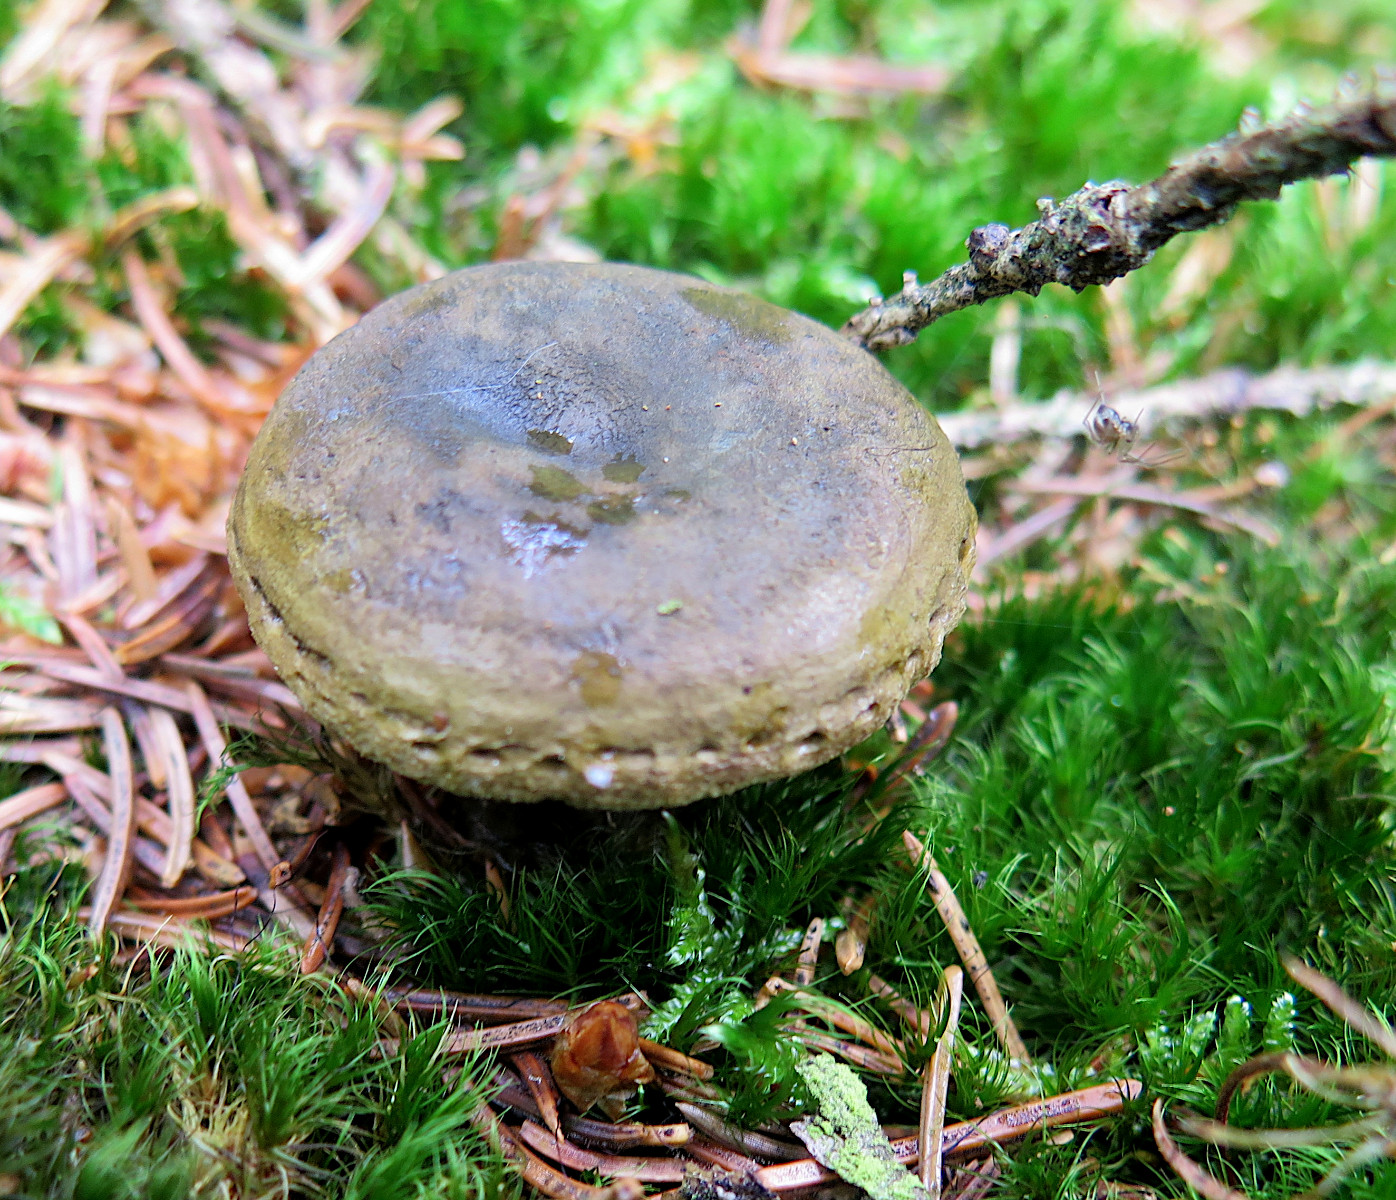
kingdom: Fungi
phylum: Basidiomycota
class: Agaricomycetes
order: Russulales
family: Russulaceae
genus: Lactarius
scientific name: Lactarius necator
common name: manddraber-mælkehat
